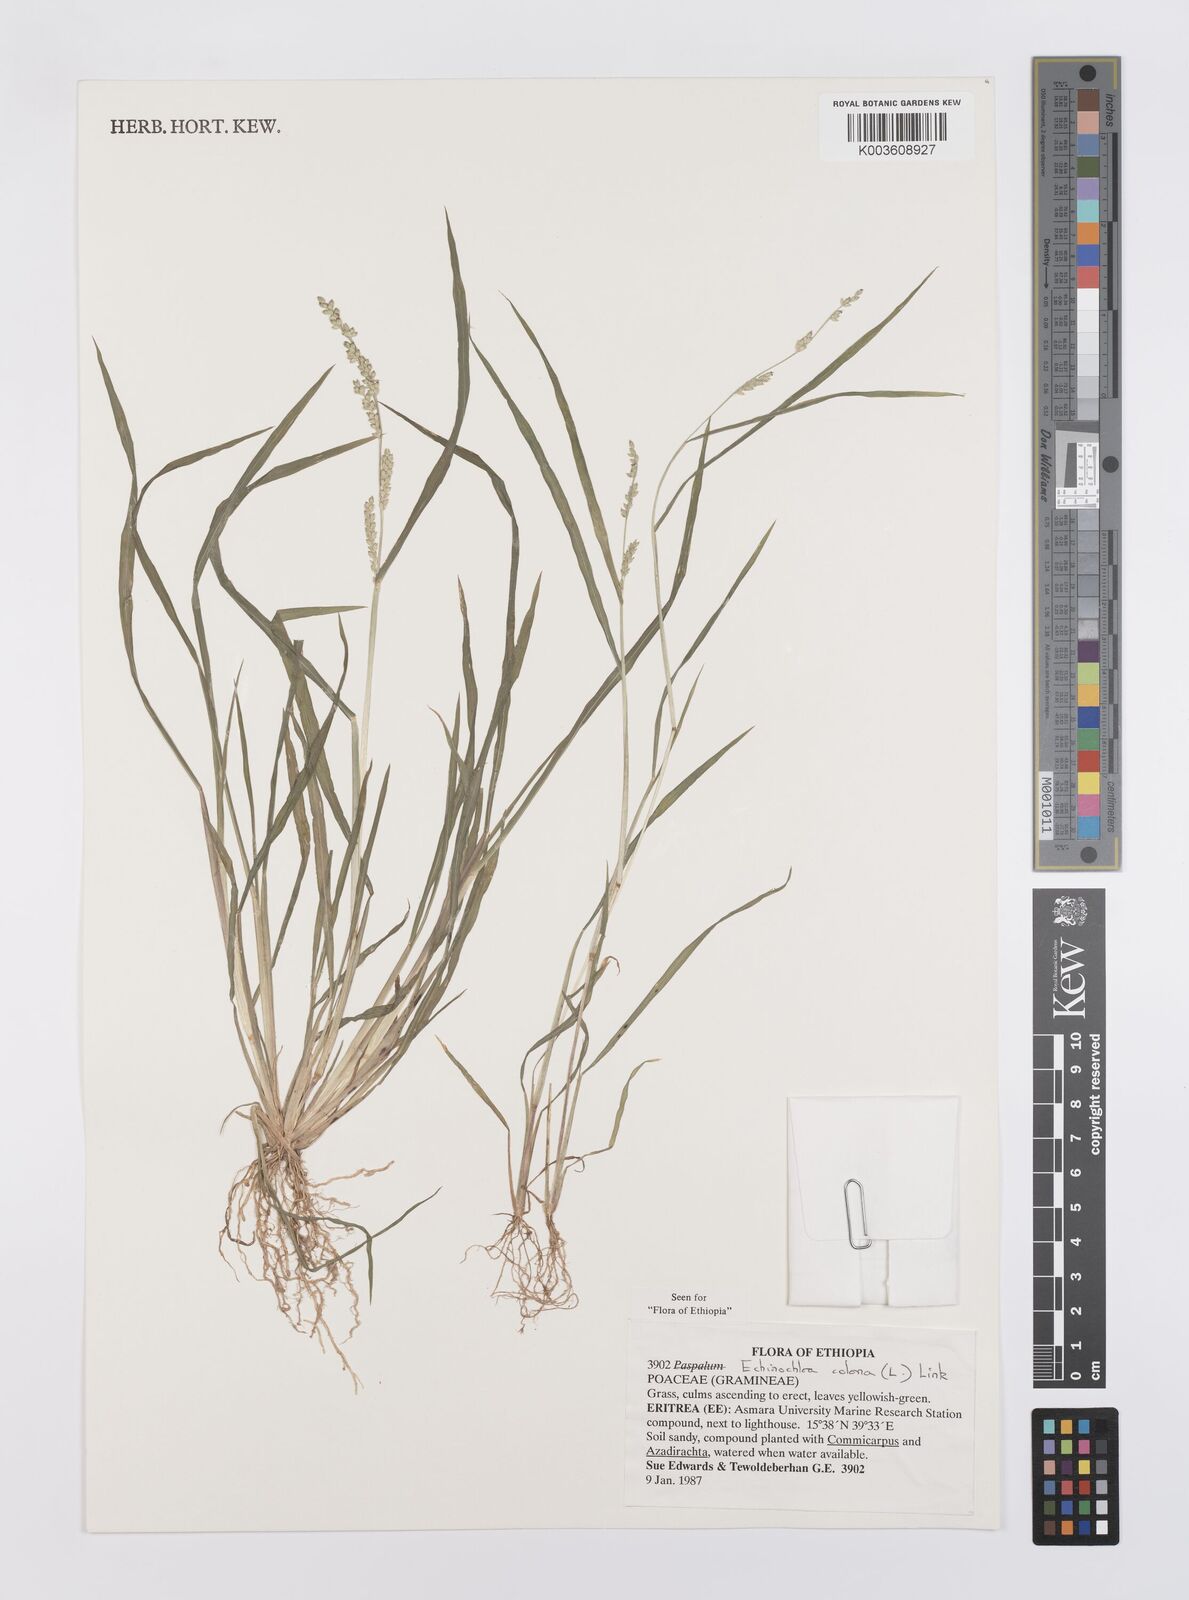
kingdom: Plantae
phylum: Tracheophyta
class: Liliopsida
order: Poales
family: Poaceae
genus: Echinochloa
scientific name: Echinochloa colonum
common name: Jungle rice
